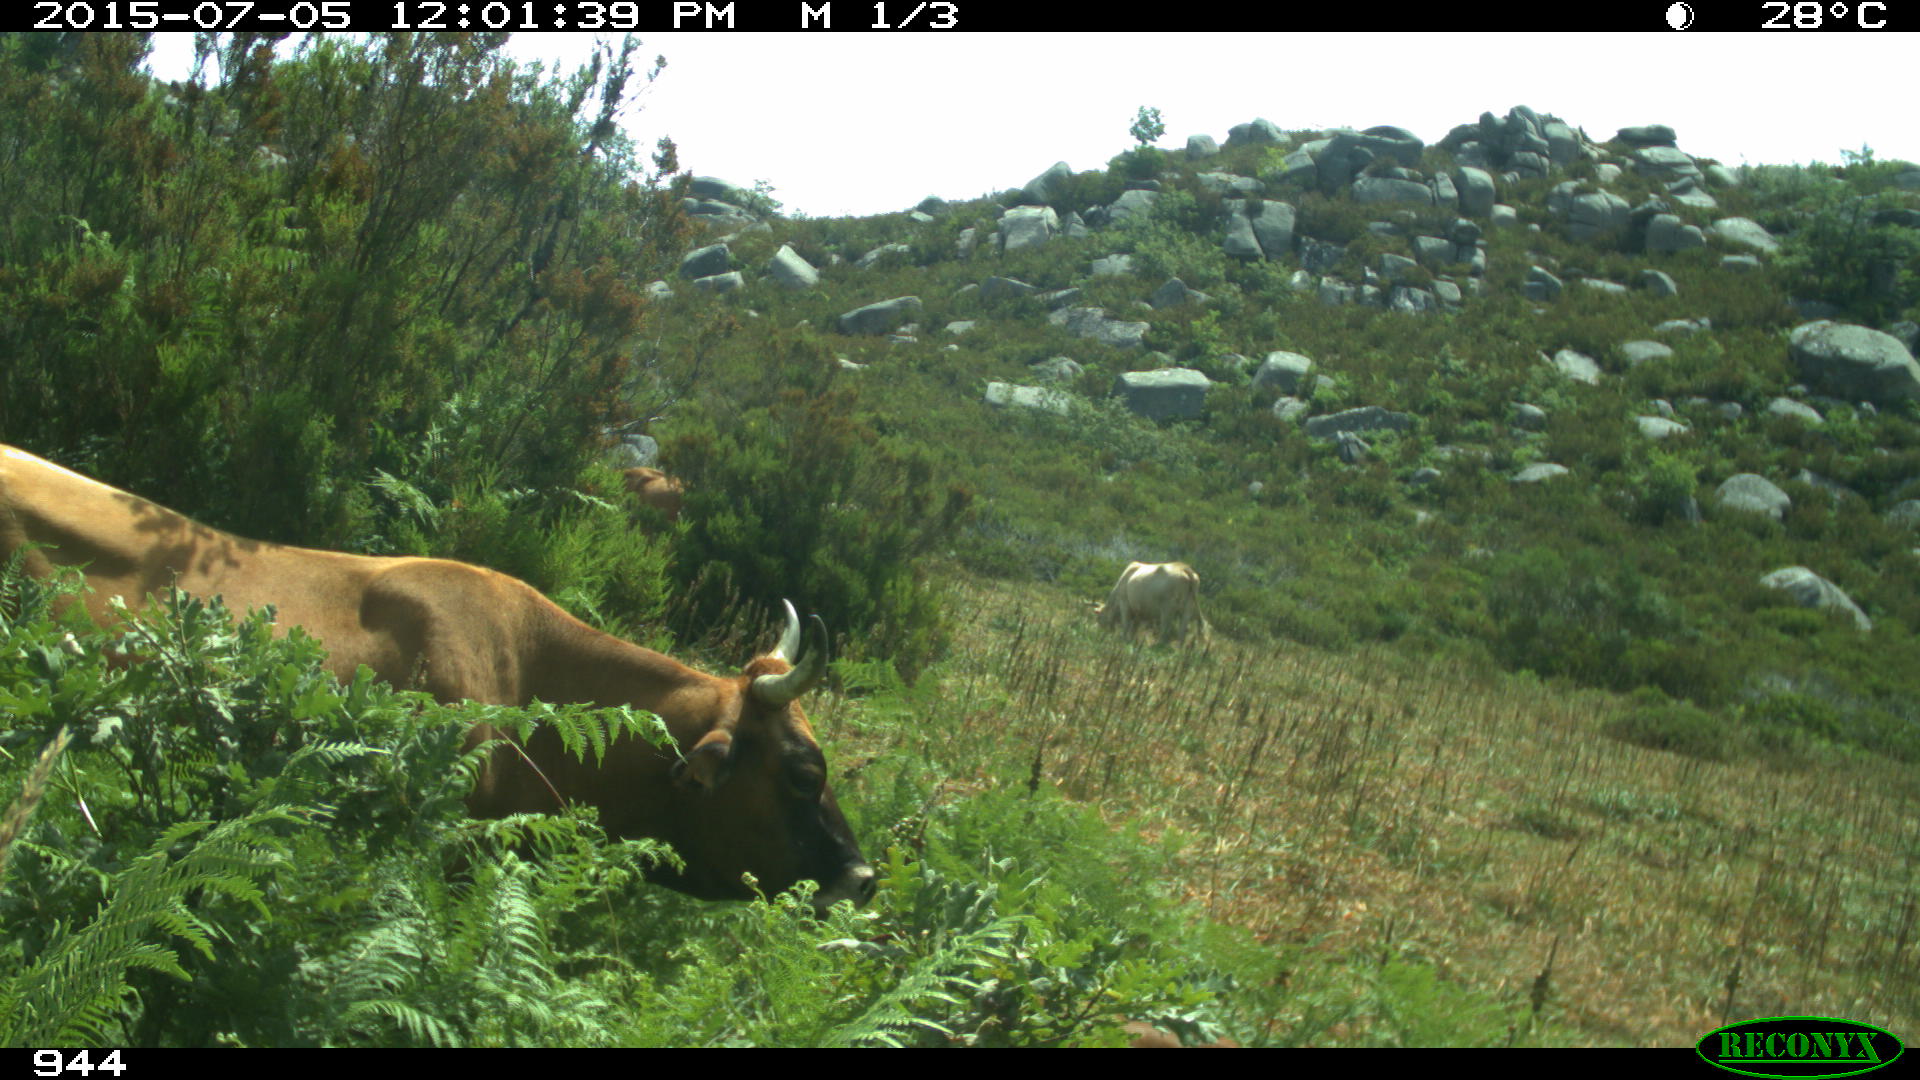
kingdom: Animalia
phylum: Chordata
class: Mammalia
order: Artiodactyla
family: Bovidae
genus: Bos
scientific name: Bos taurus
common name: Domesticated cattle
